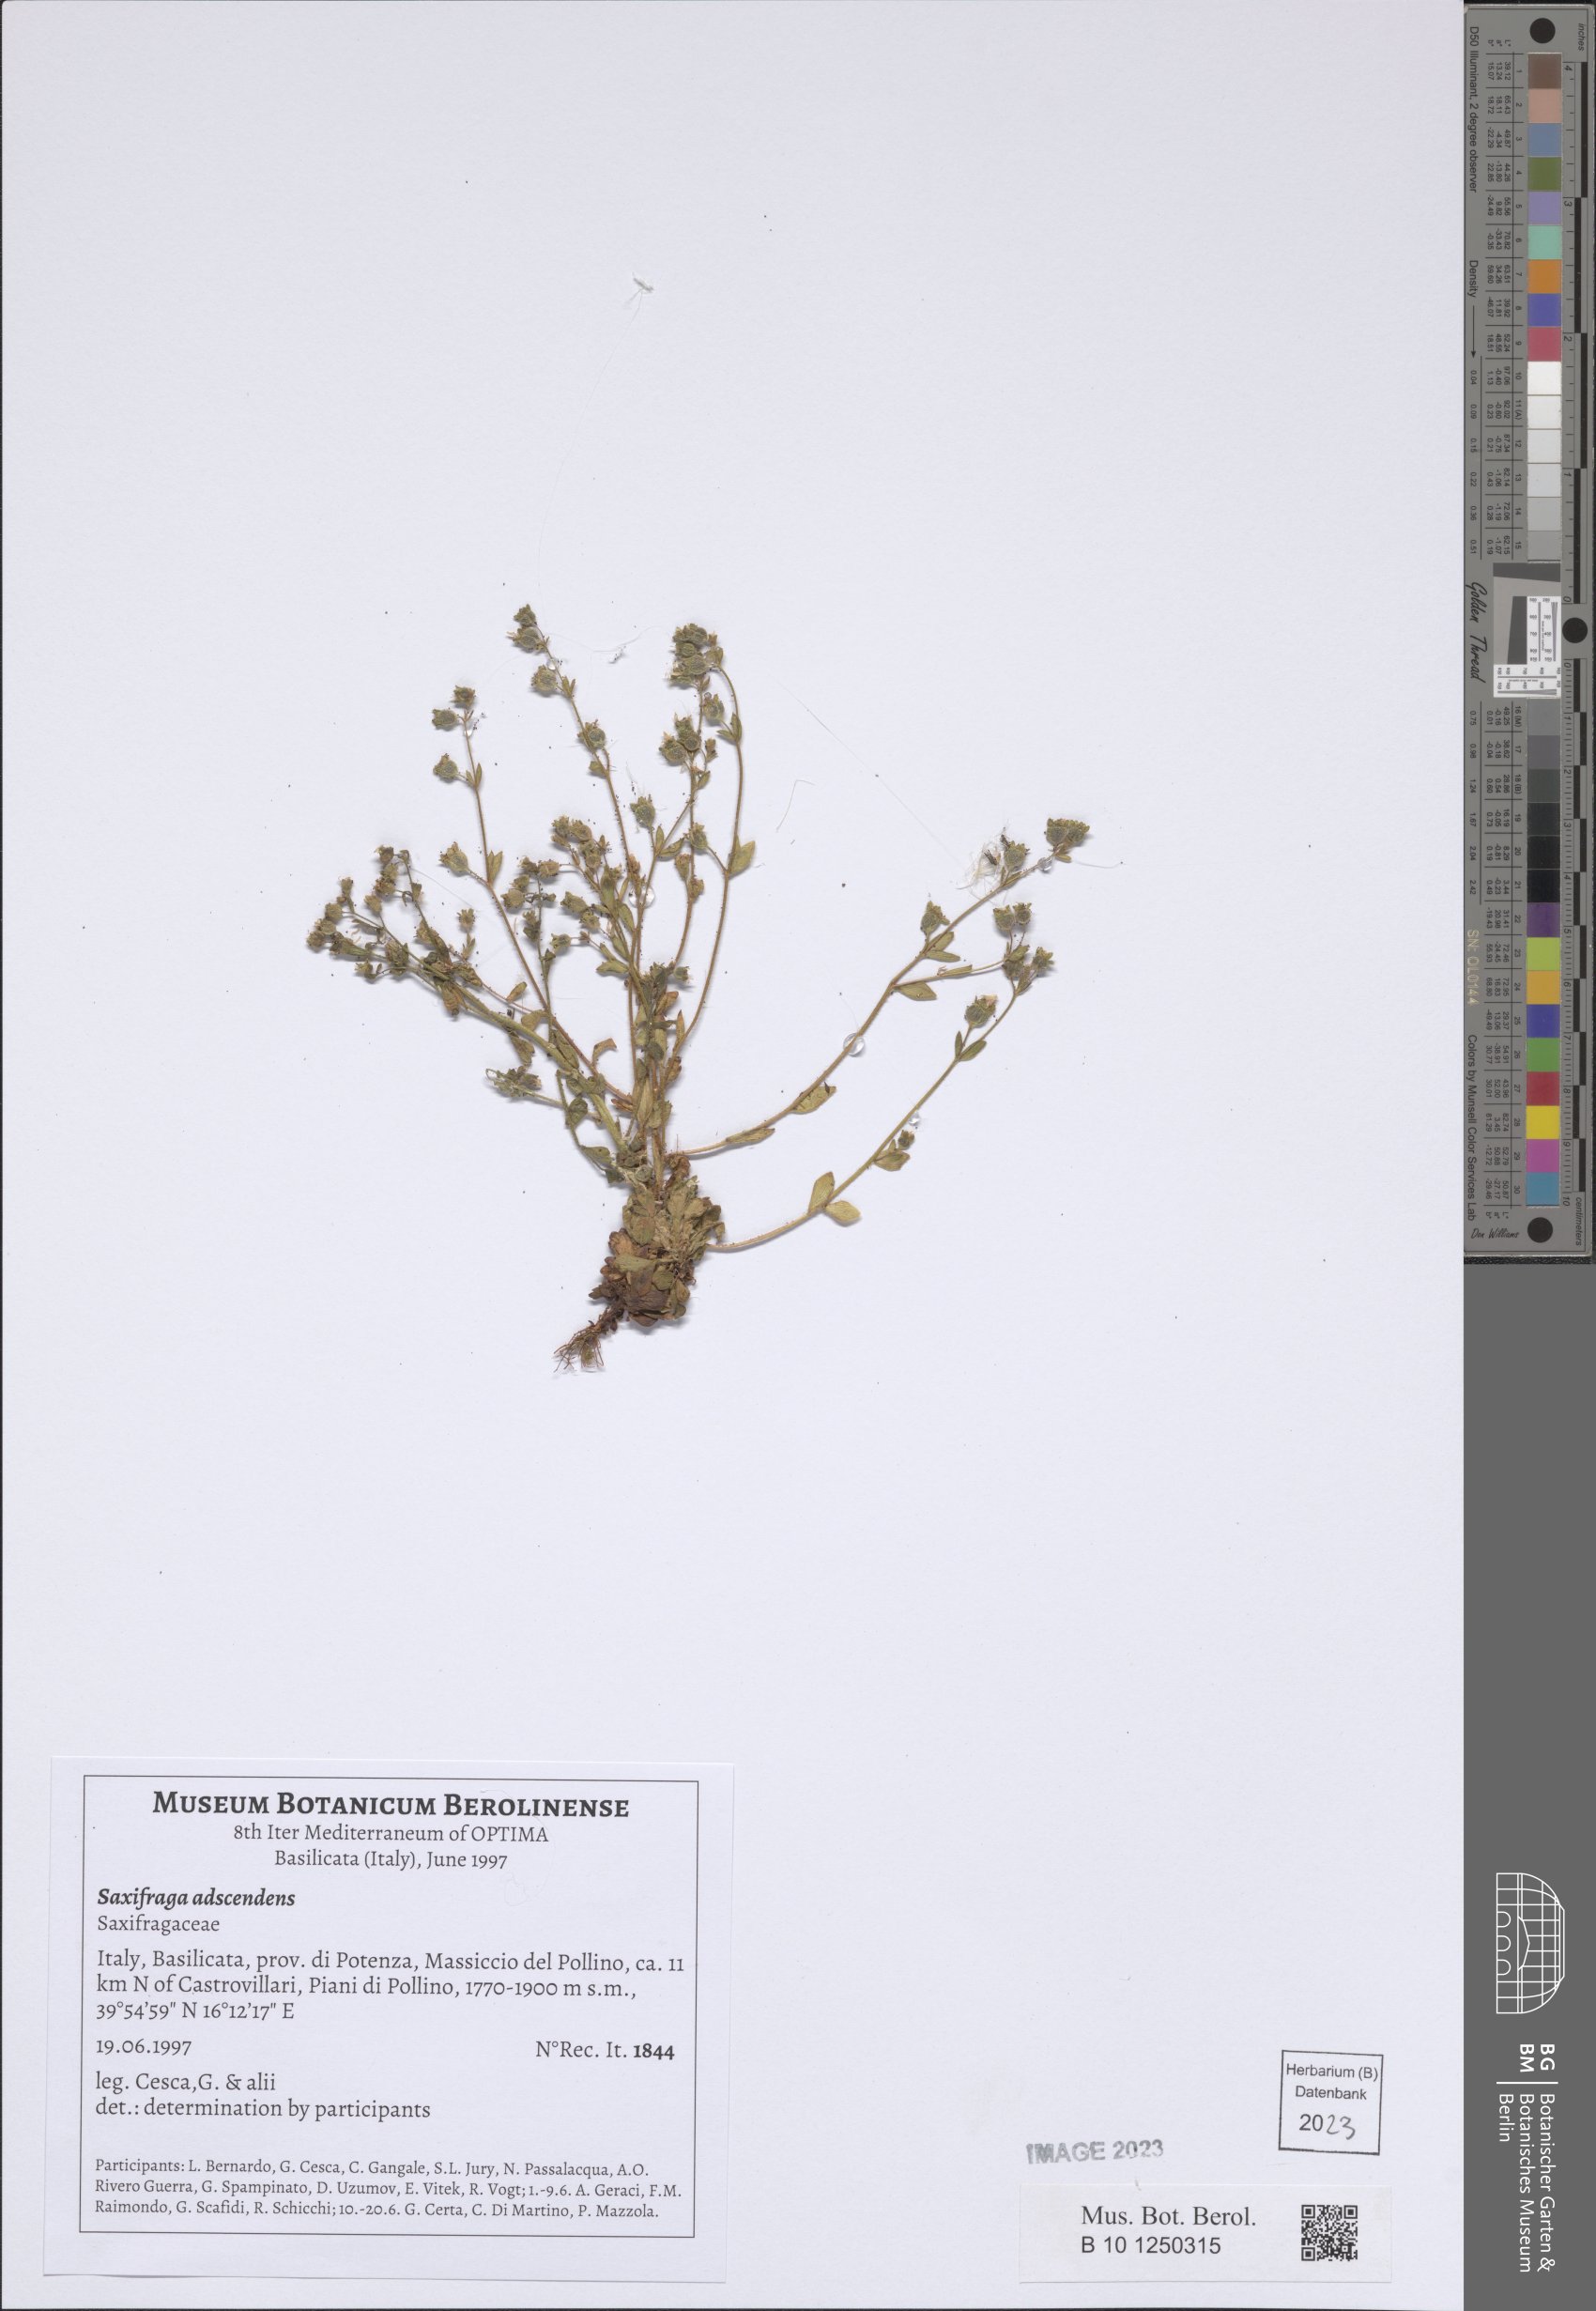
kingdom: Plantae
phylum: Tracheophyta
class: Magnoliopsida
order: Saxifragales
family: Saxifragaceae
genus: Saxifraga
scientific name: Saxifraga adscendens
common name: Ascending saxifrage
